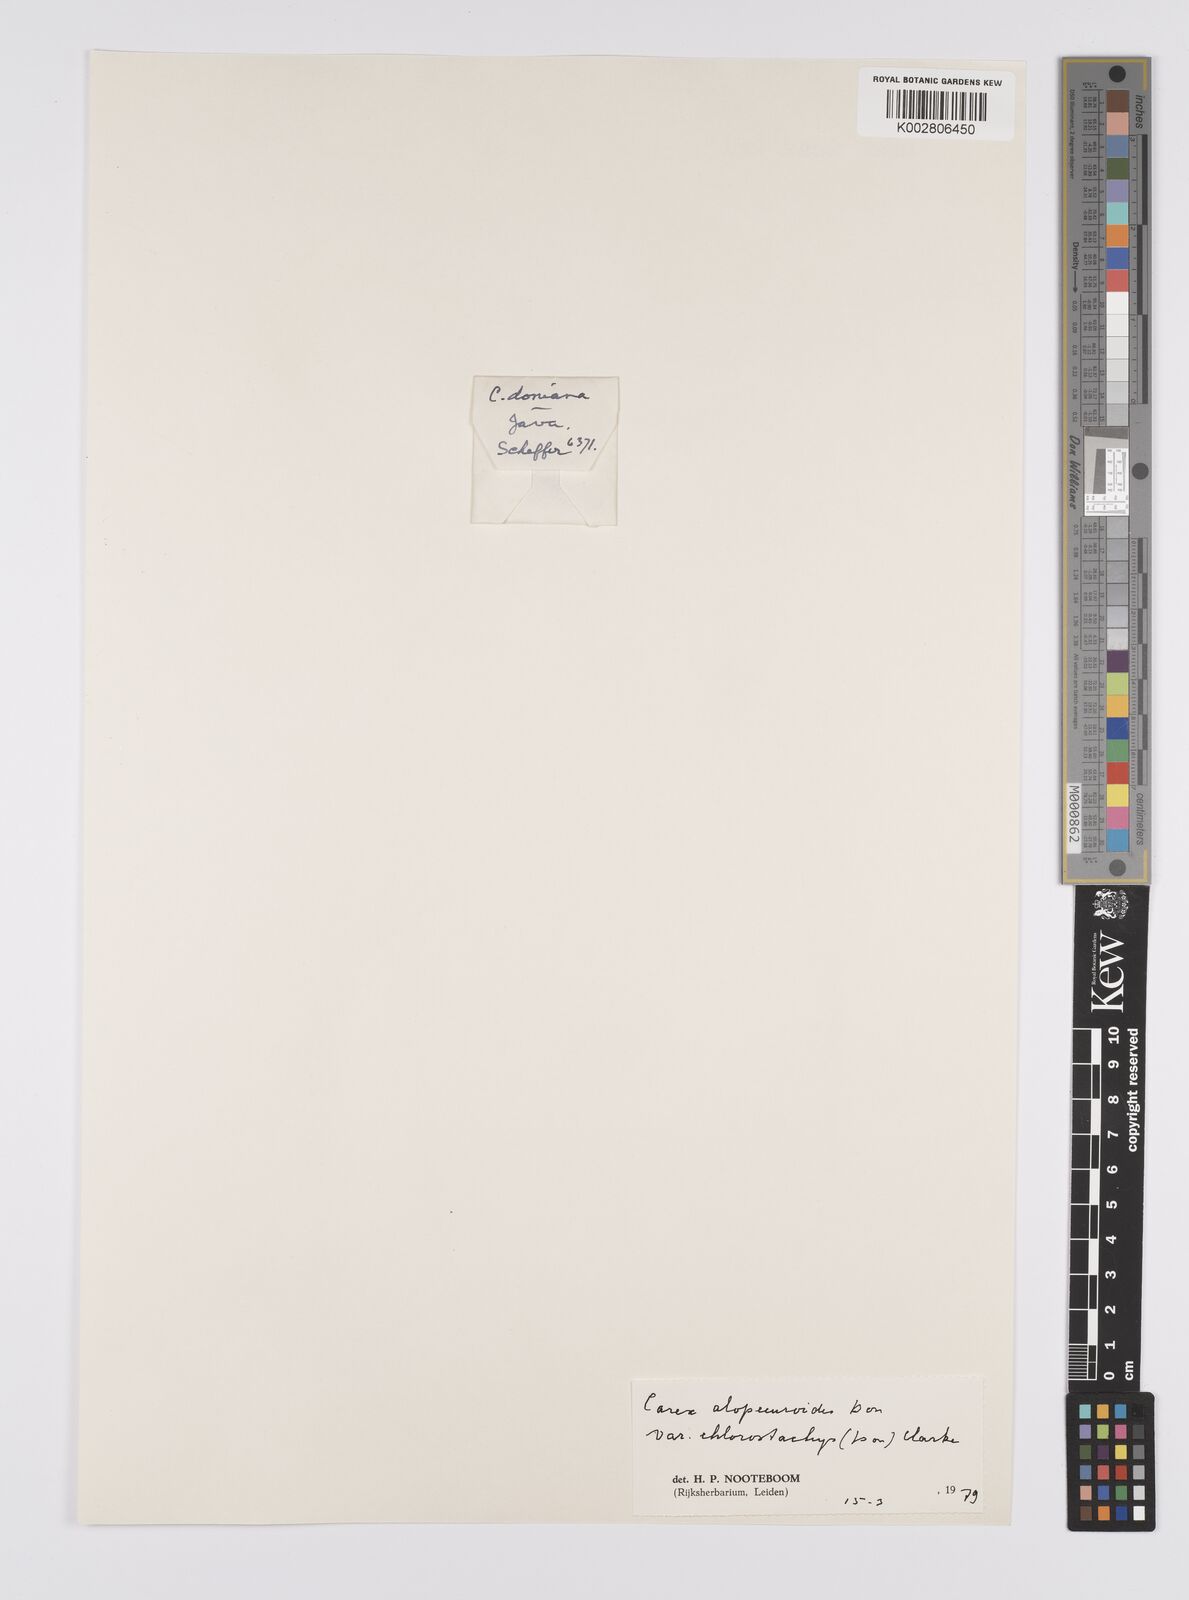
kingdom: Plantae
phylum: Tracheophyta
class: Liliopsida
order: Poales
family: Cyperaceae
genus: Carex
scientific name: Carex alopecuroides
